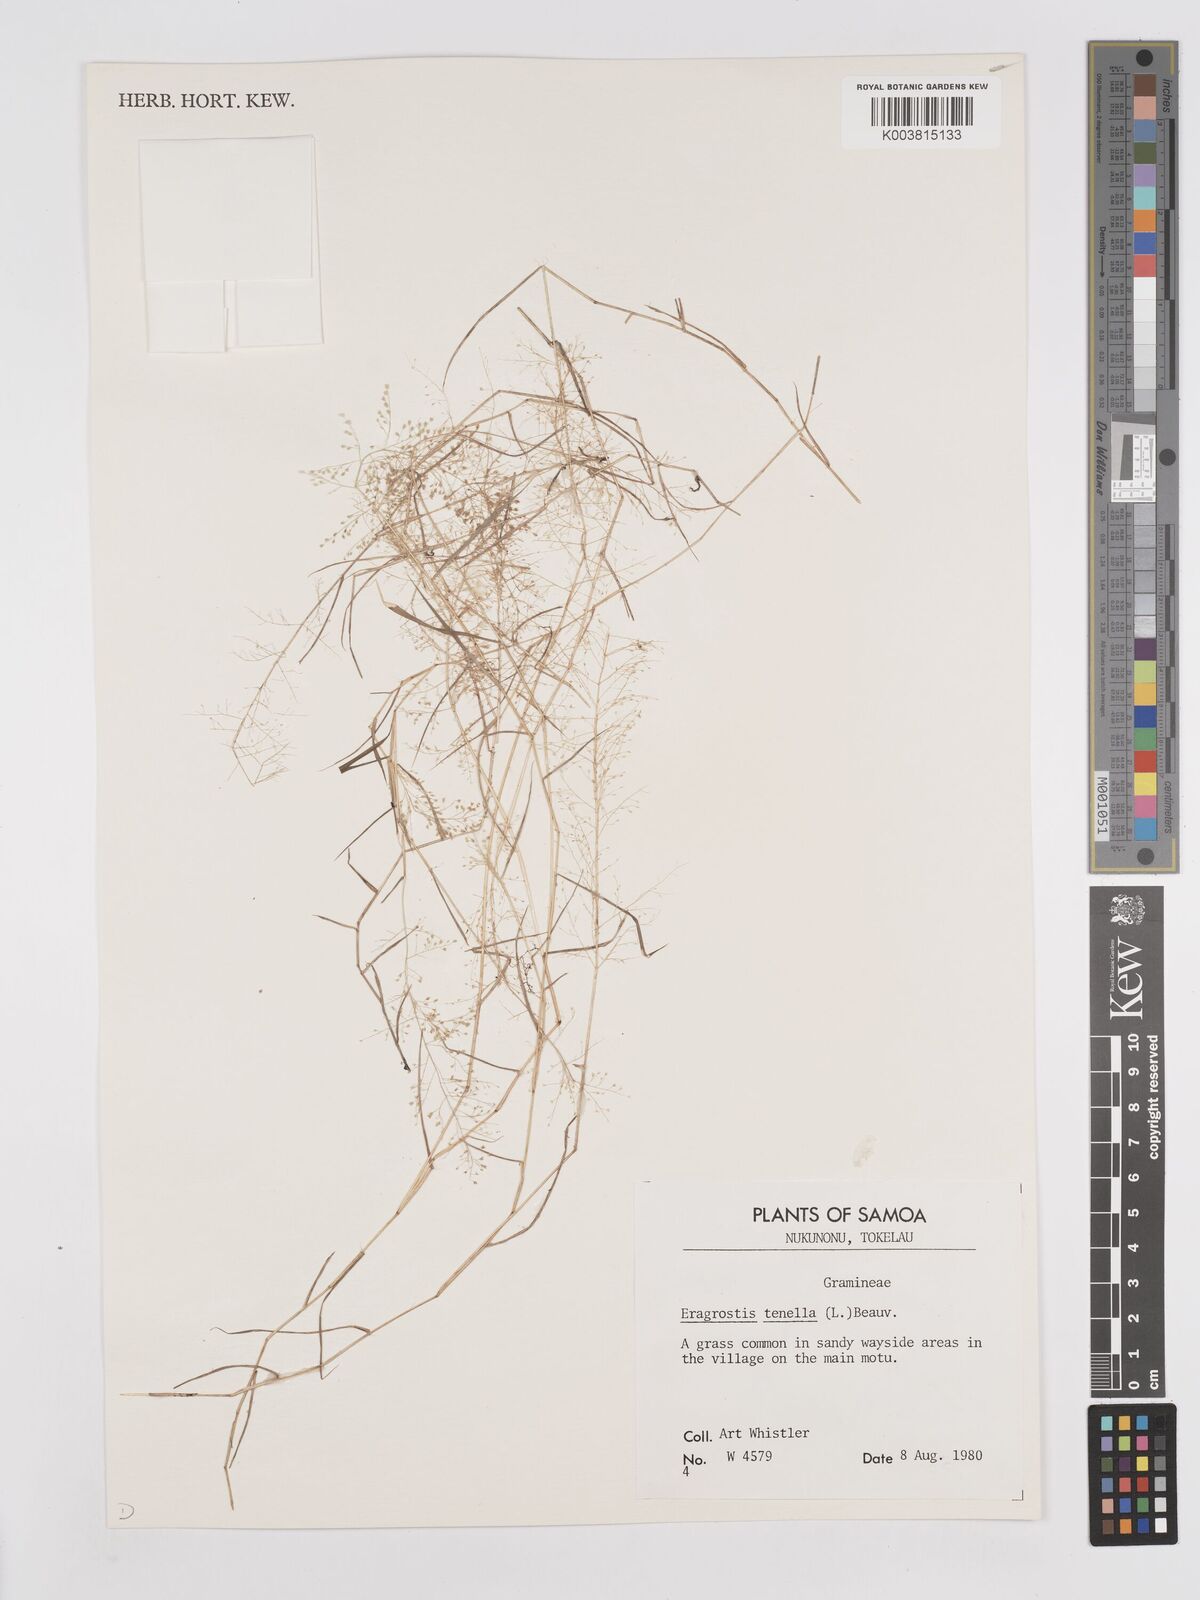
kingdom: Plantae
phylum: Tracheophyta
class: Liliopsida
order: Poales
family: Poaceae
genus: Eragrostis
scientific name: Eragrostis tenella
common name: Japanese lovegrass
